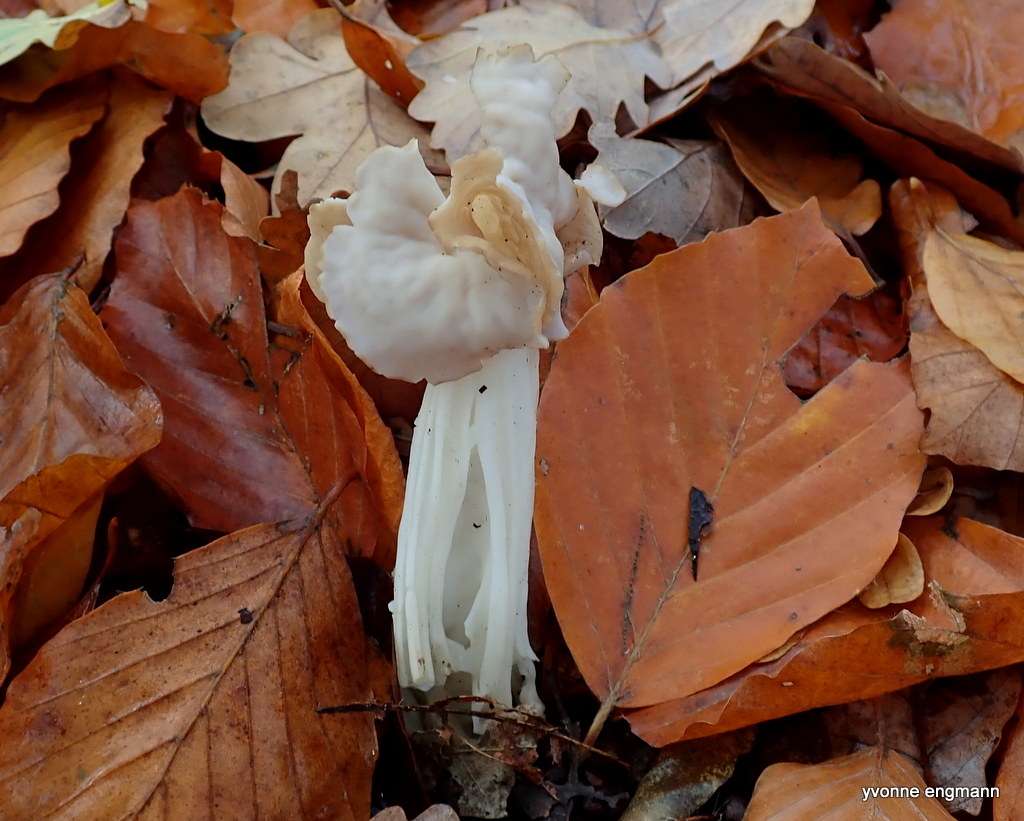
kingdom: Fungi
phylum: Ascomycota
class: Pezizomycetes
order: Pezizales
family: Helvellaceae
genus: Helvella
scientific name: Helvella crispa
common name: kruset foldhat
